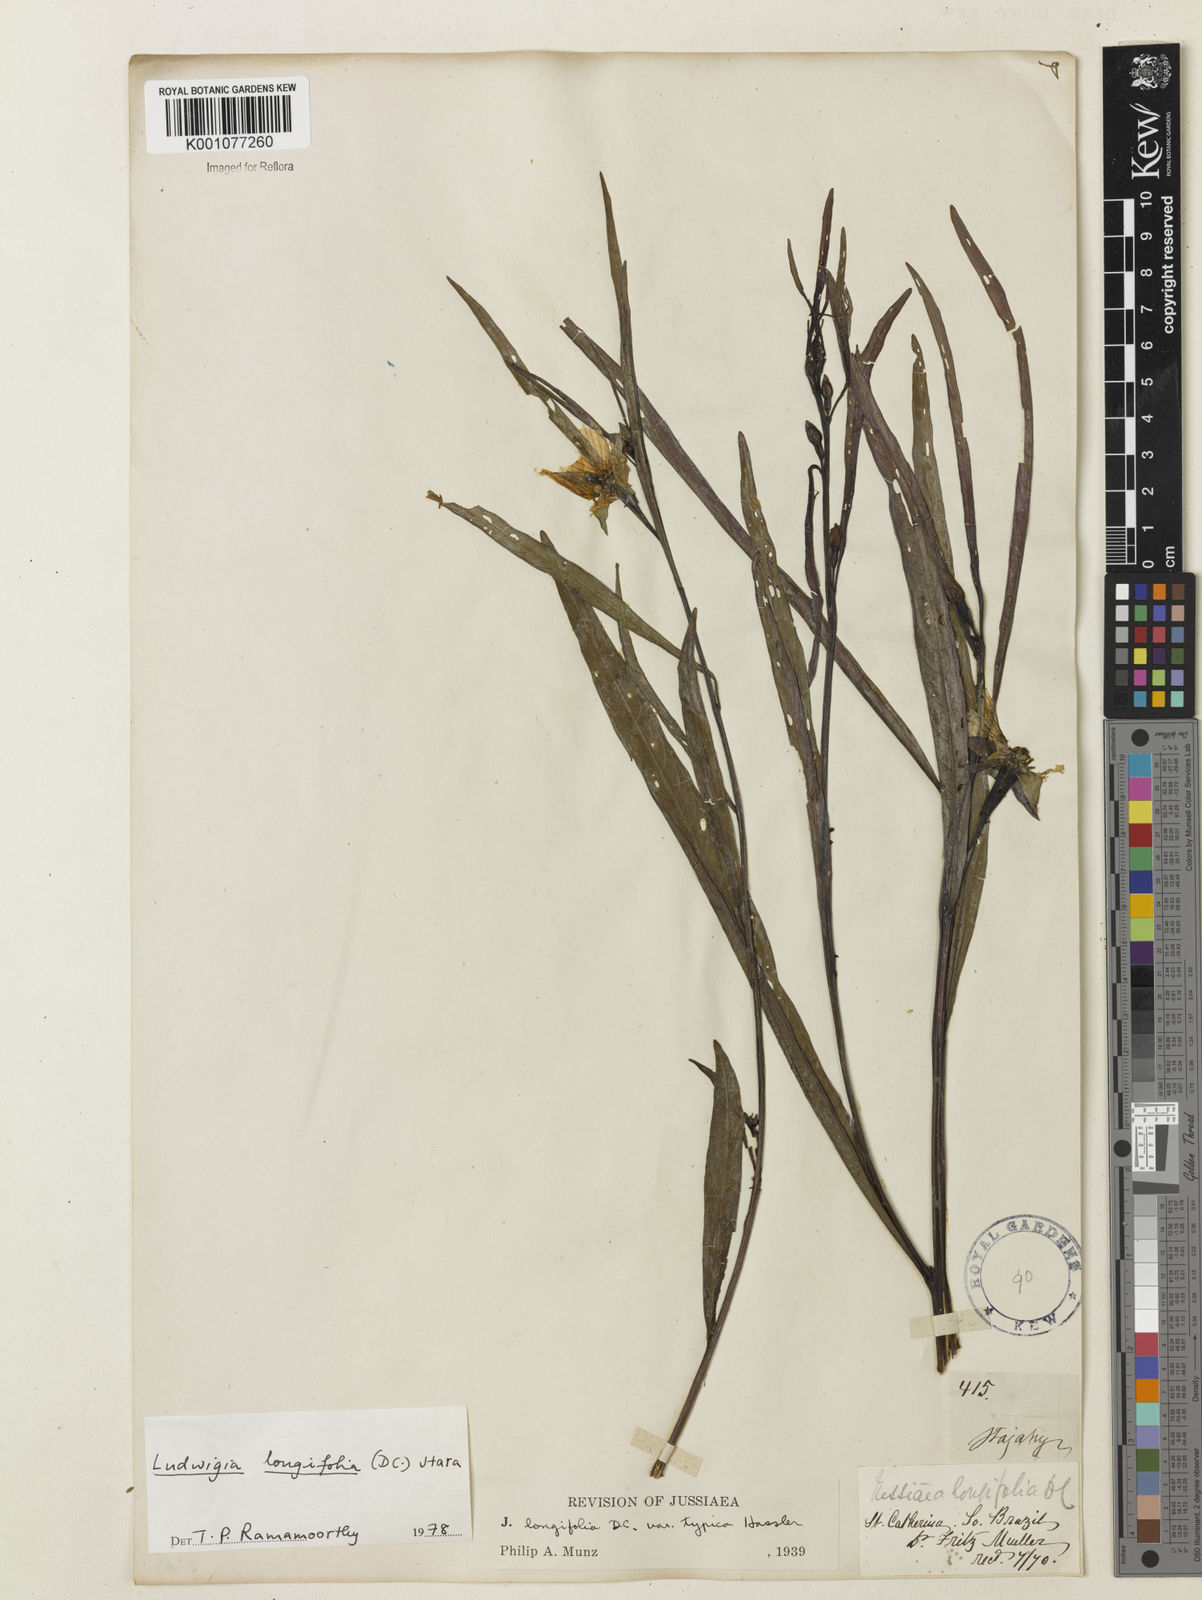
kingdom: Plantae
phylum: Tracheophyta
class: Magnoliopsida
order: Myrtales
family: Onagraceae
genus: Ludwigia
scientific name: Ludwigia longifolia
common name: Longleaf primrose-willow
